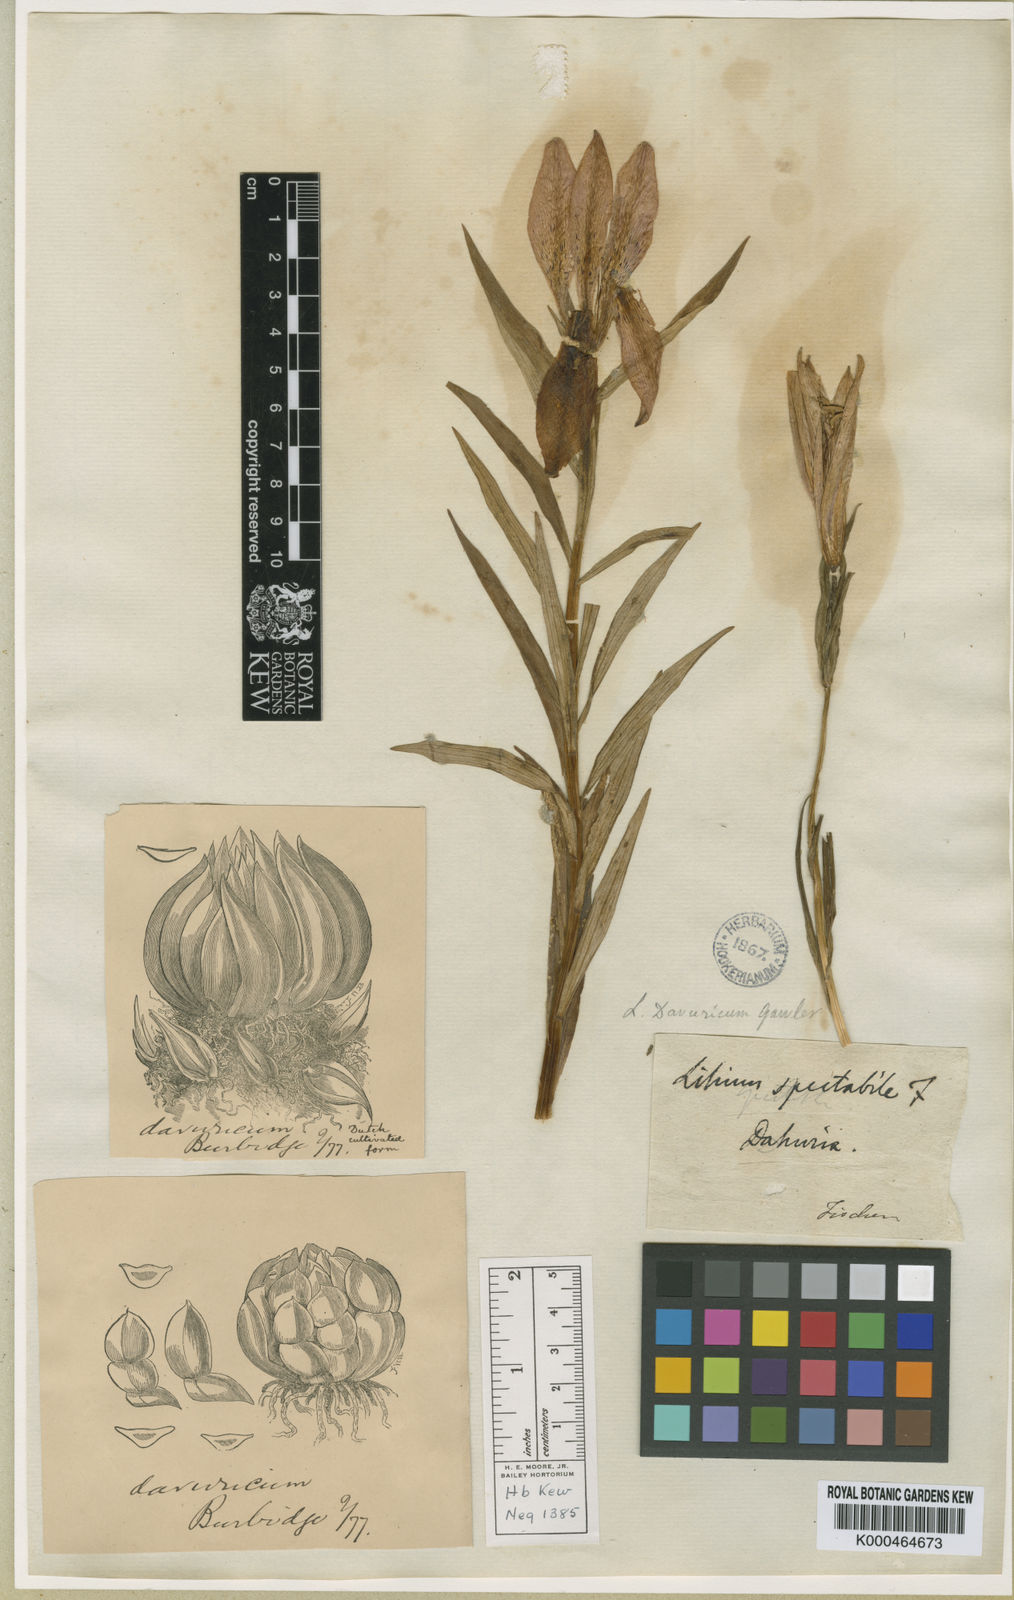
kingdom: Plantae
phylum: Tracheophyta
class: Liliopsida
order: Liliales
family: Liliaceae
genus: Lilium
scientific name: Lilium
